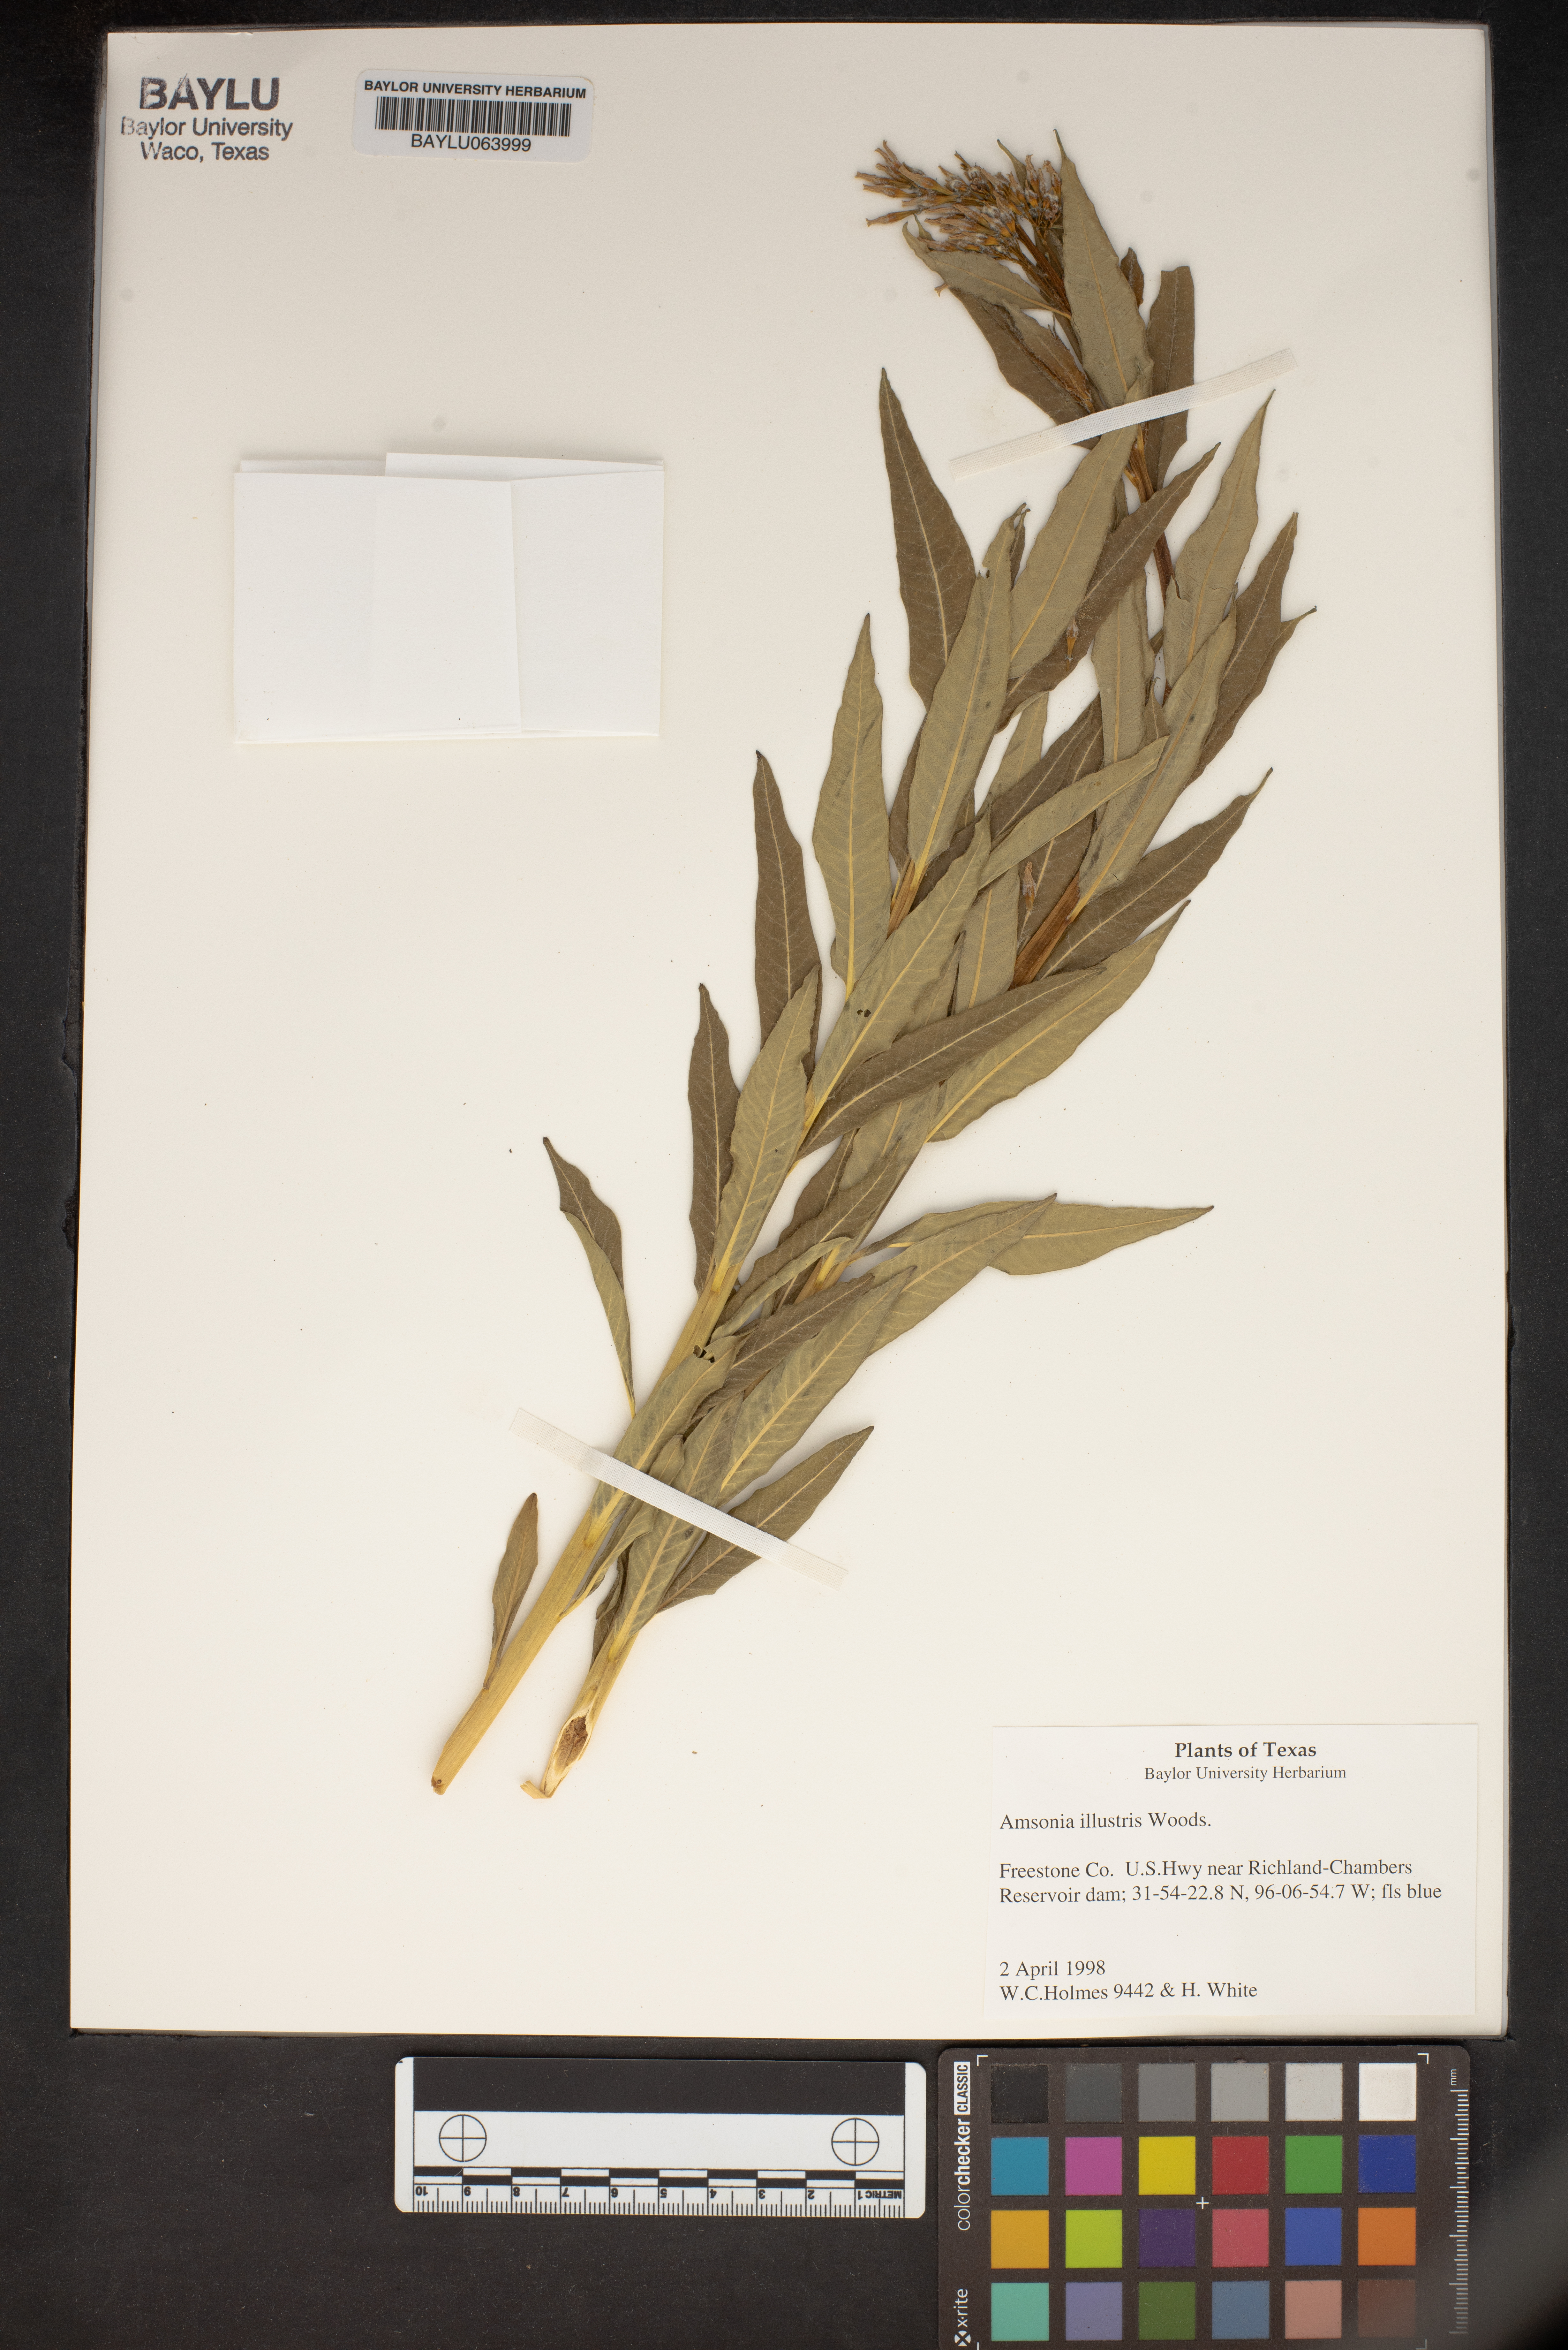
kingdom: Plantae
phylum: Tracheophyta
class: Magnoliopsida
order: Gentianales
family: Apocynaceae
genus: Amsonia
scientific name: Amsonia tabernaemontana
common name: Texas-star
